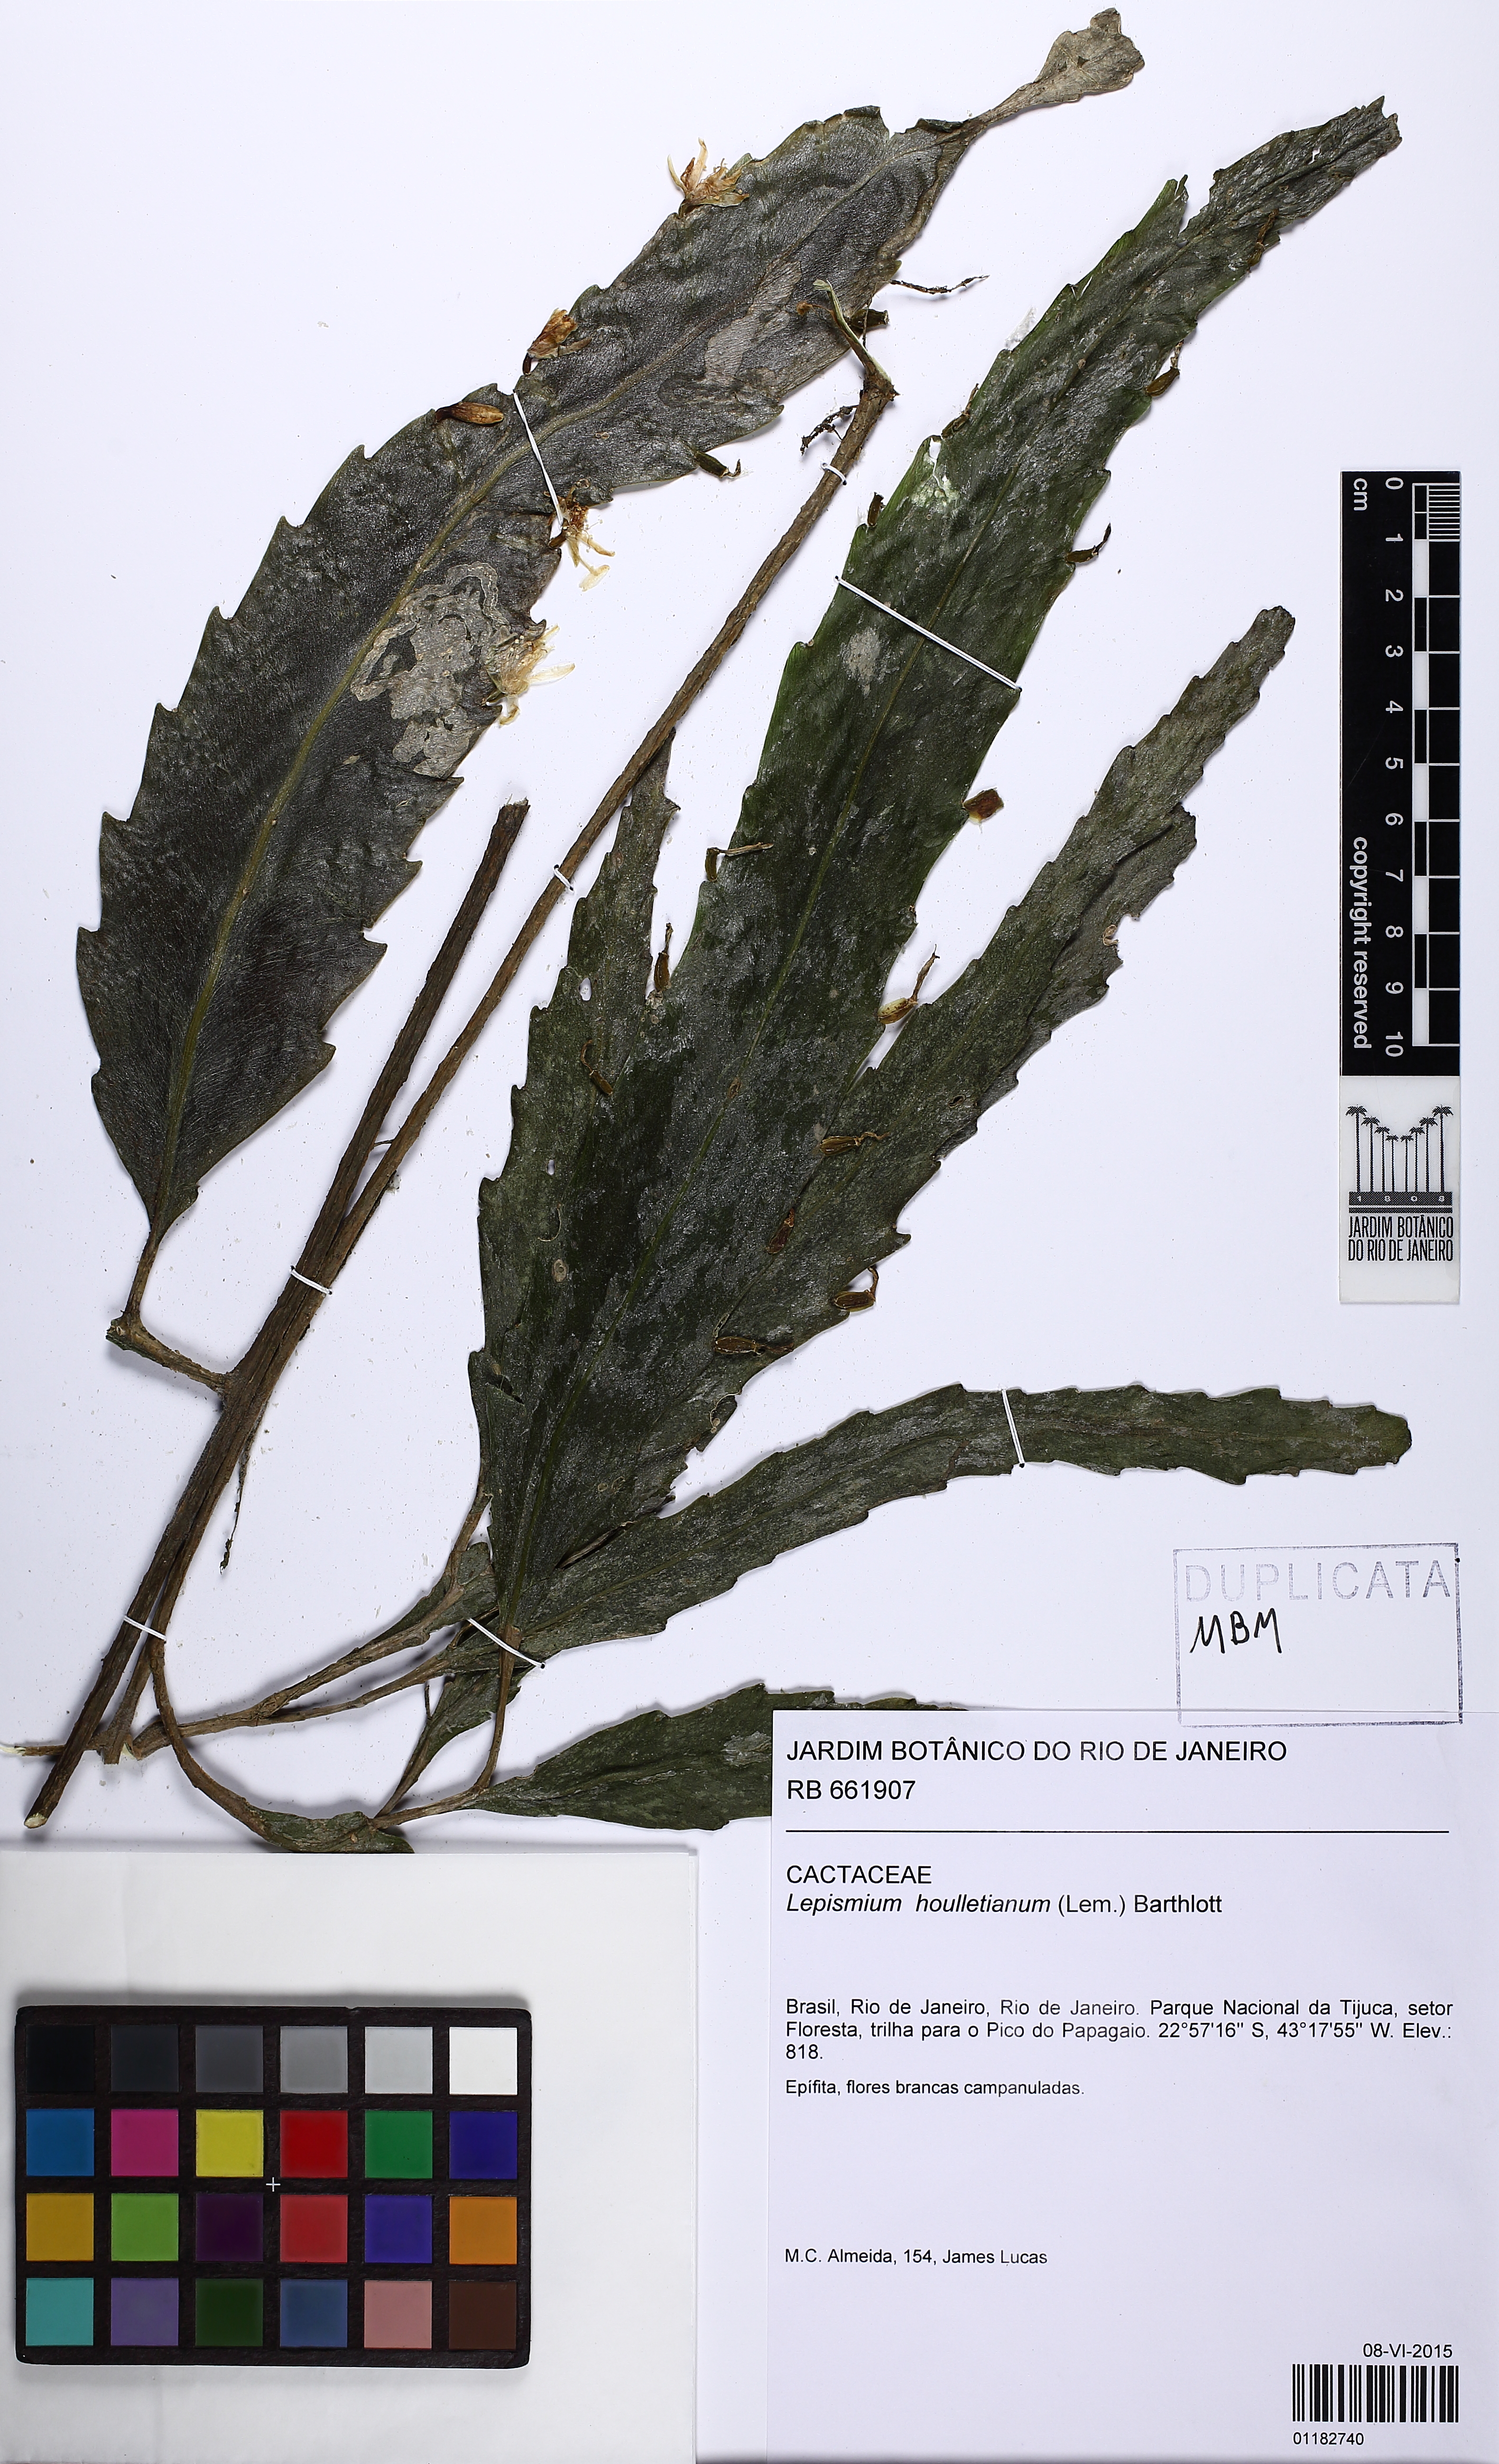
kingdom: Plantae
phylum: Tracheophyta
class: Magnoliopsida
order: Caryophyllales
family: Cactaceae
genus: Lepismium
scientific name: Lepismium houlletianum
